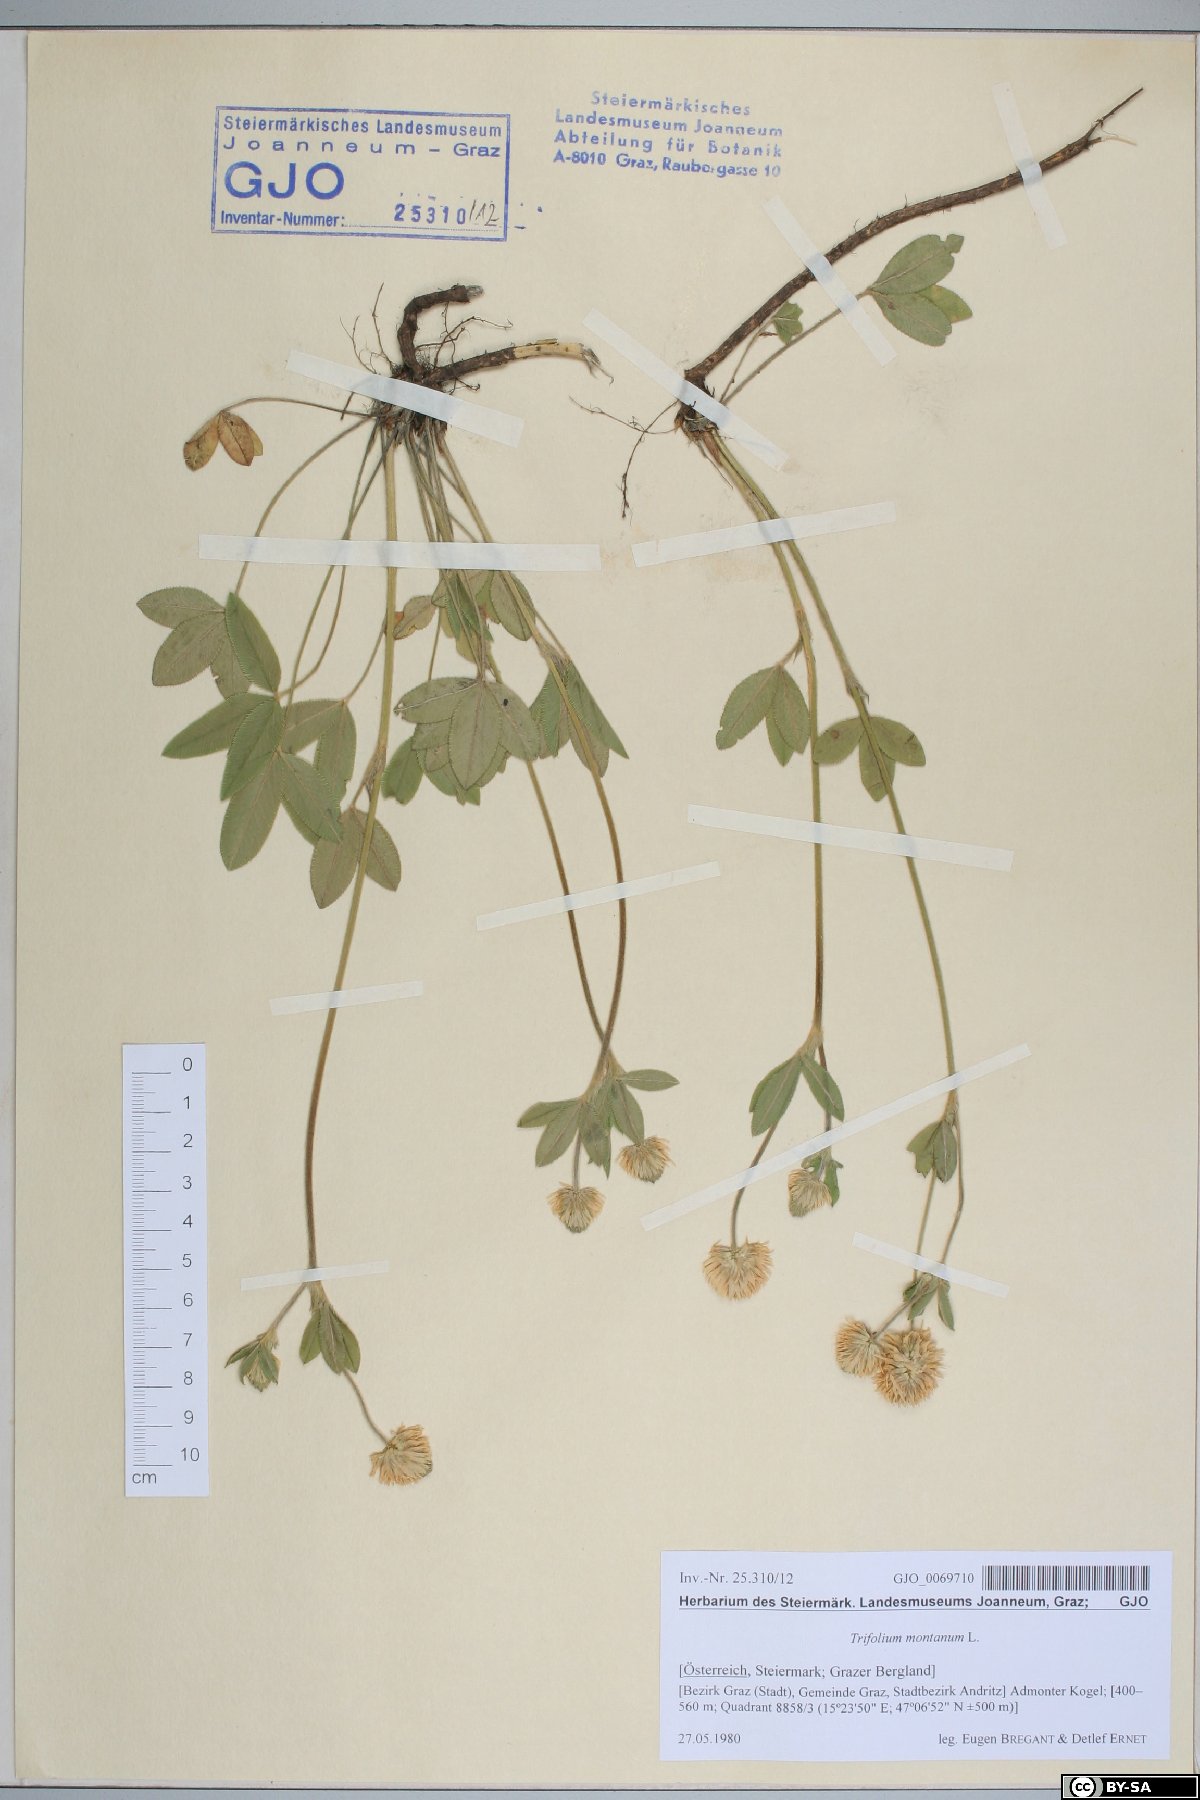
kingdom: Plantae
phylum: Tracheophyta
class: Magnoliopsida
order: Fabales
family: Fabaceae
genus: Trifolium
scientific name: Trifolium montanum
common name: Mountain clover
